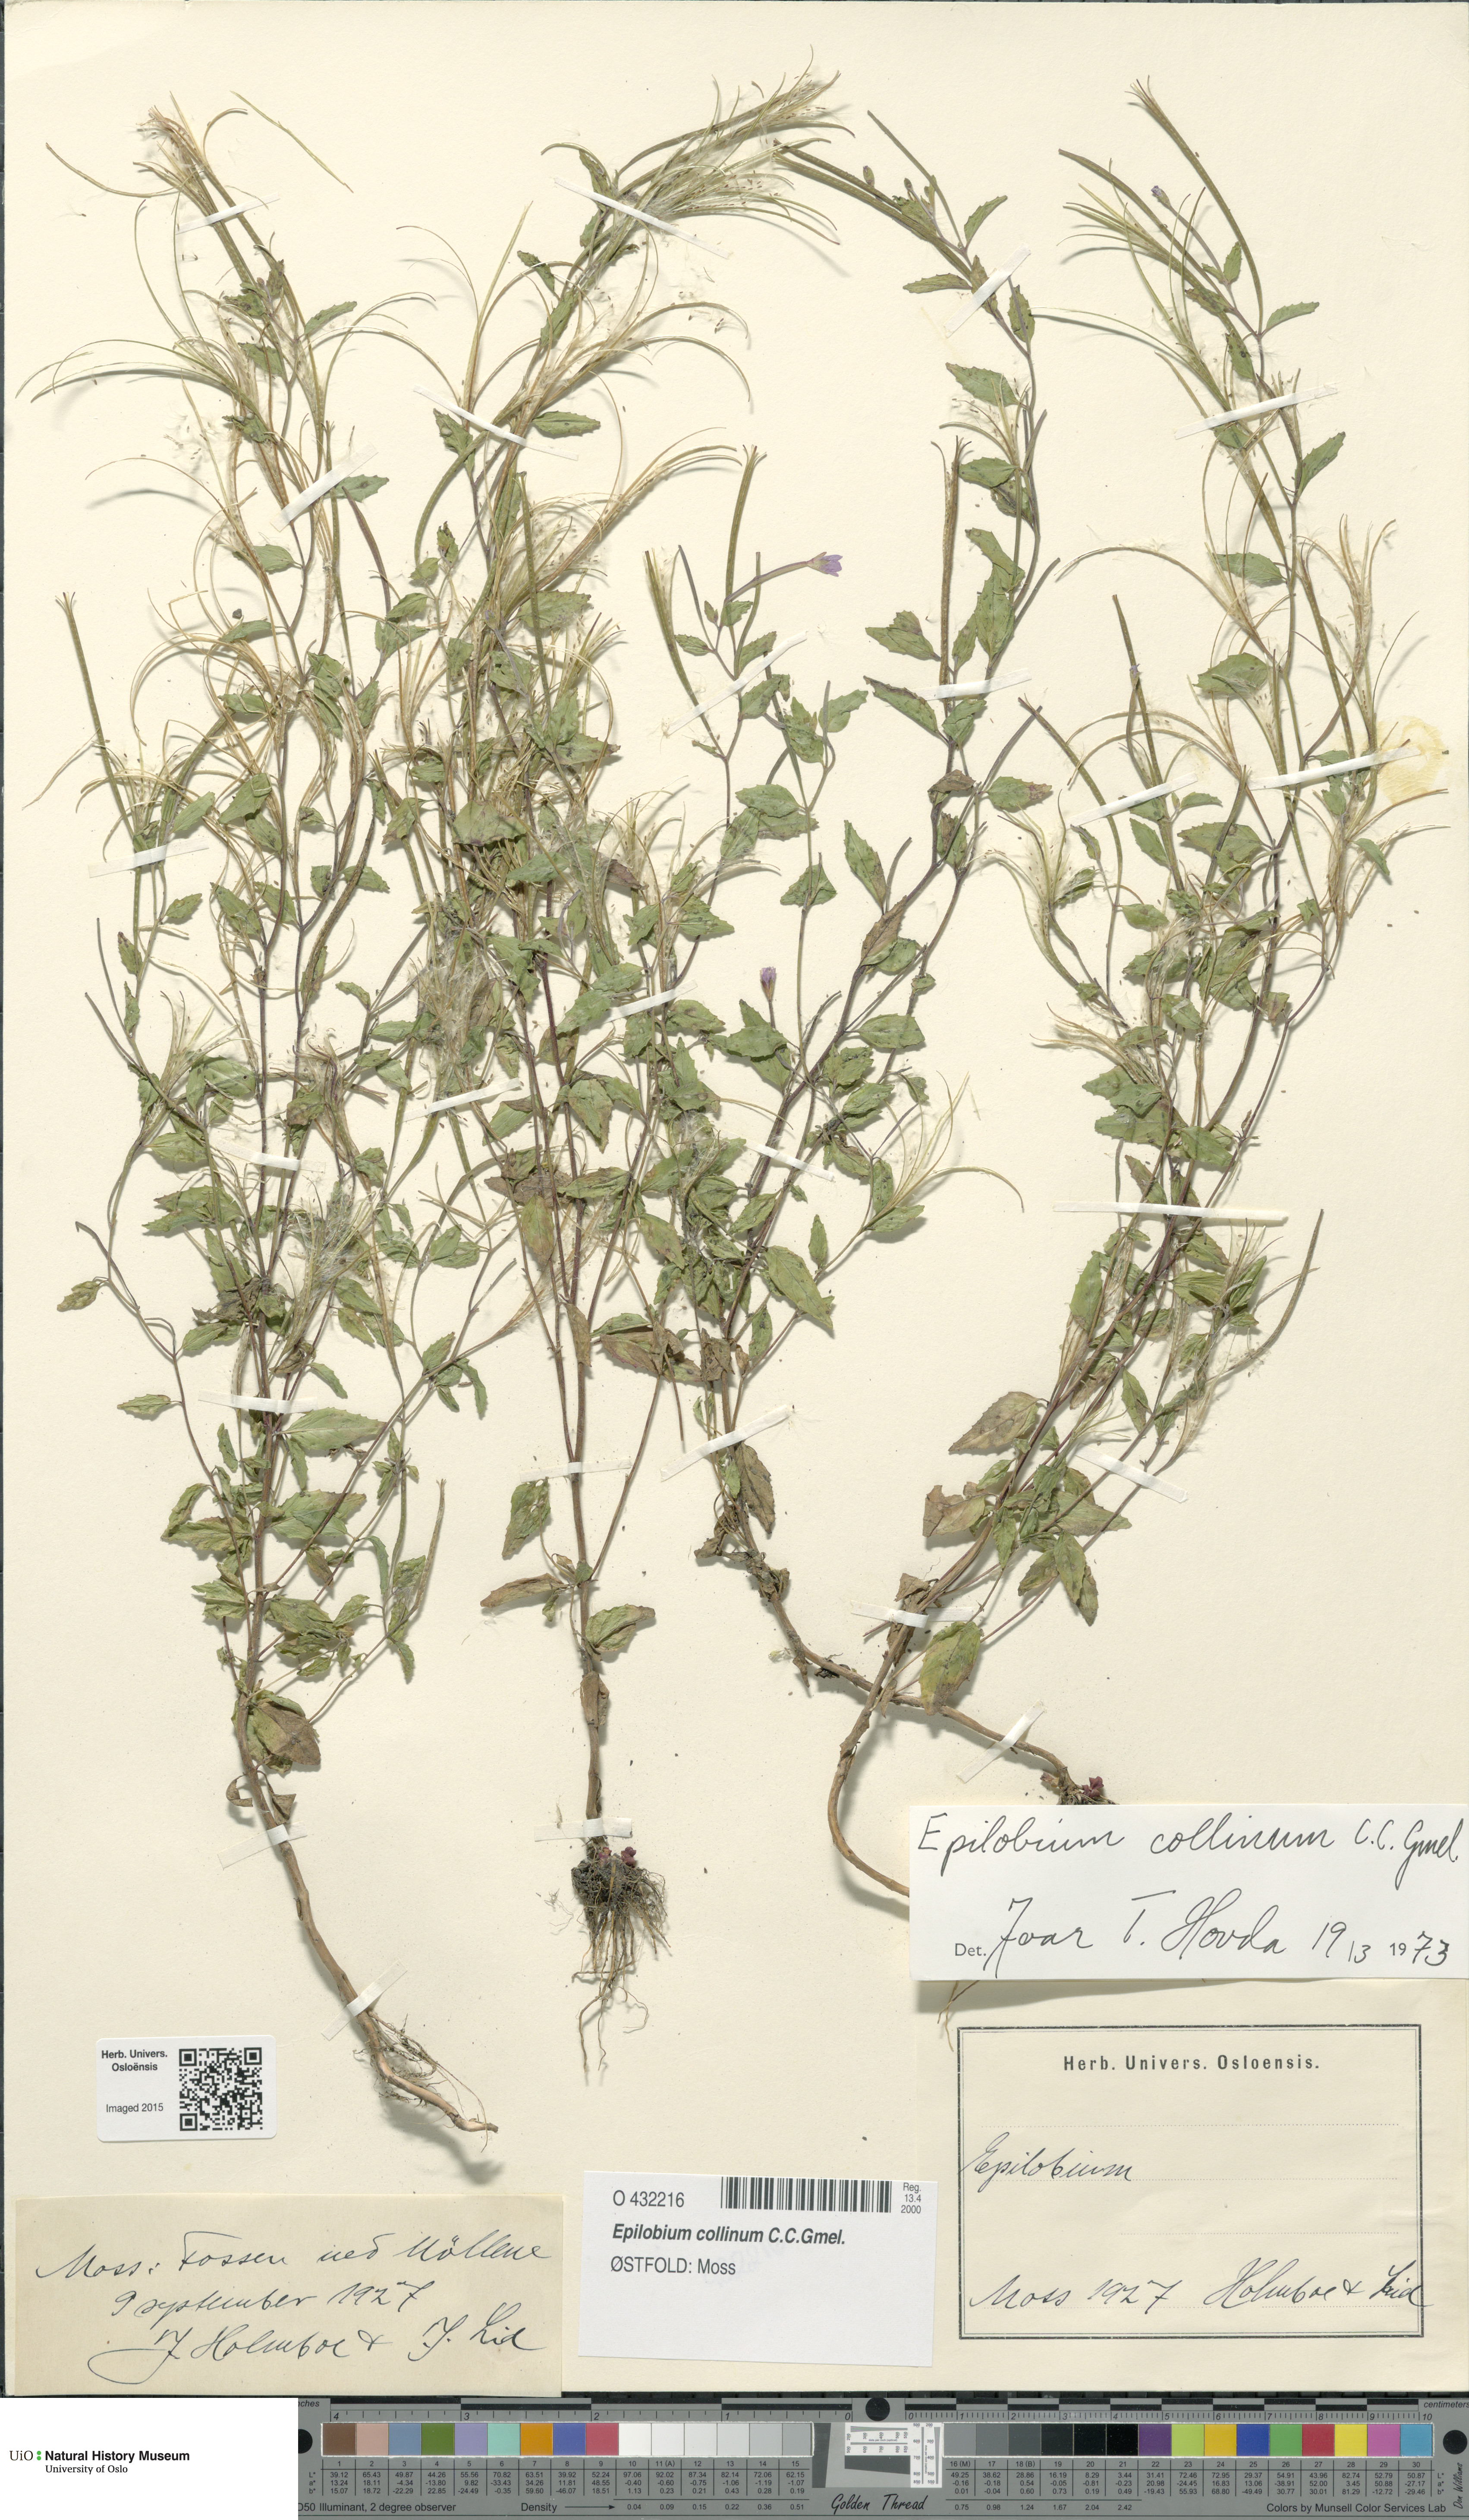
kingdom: Plantae
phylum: Tracheophyta
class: Magnoliopsida
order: Myrtales
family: Onagraceae
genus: Epilobium
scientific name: Epilobium collinum
